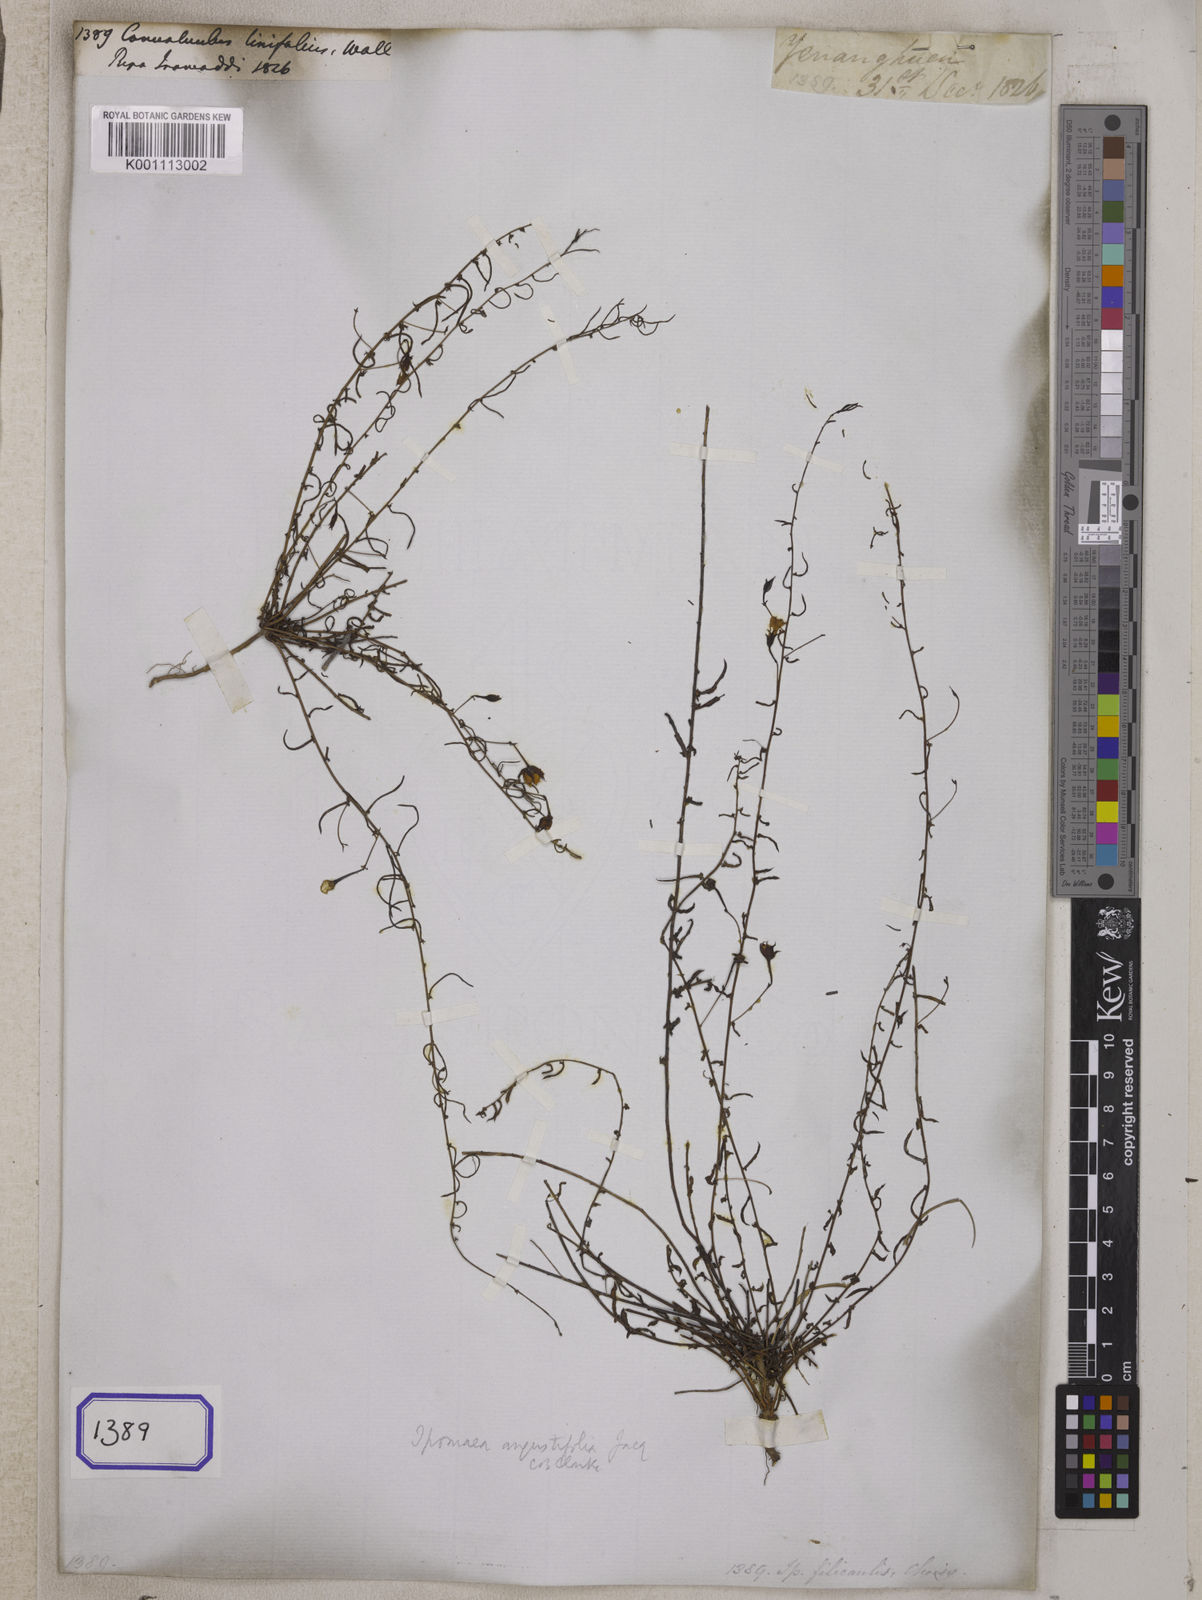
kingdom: Plantae
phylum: Tracheophyta
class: Magnoliopsida
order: Solanales
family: Convolvulaceae
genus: Convolvulus
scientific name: Convolvulus
